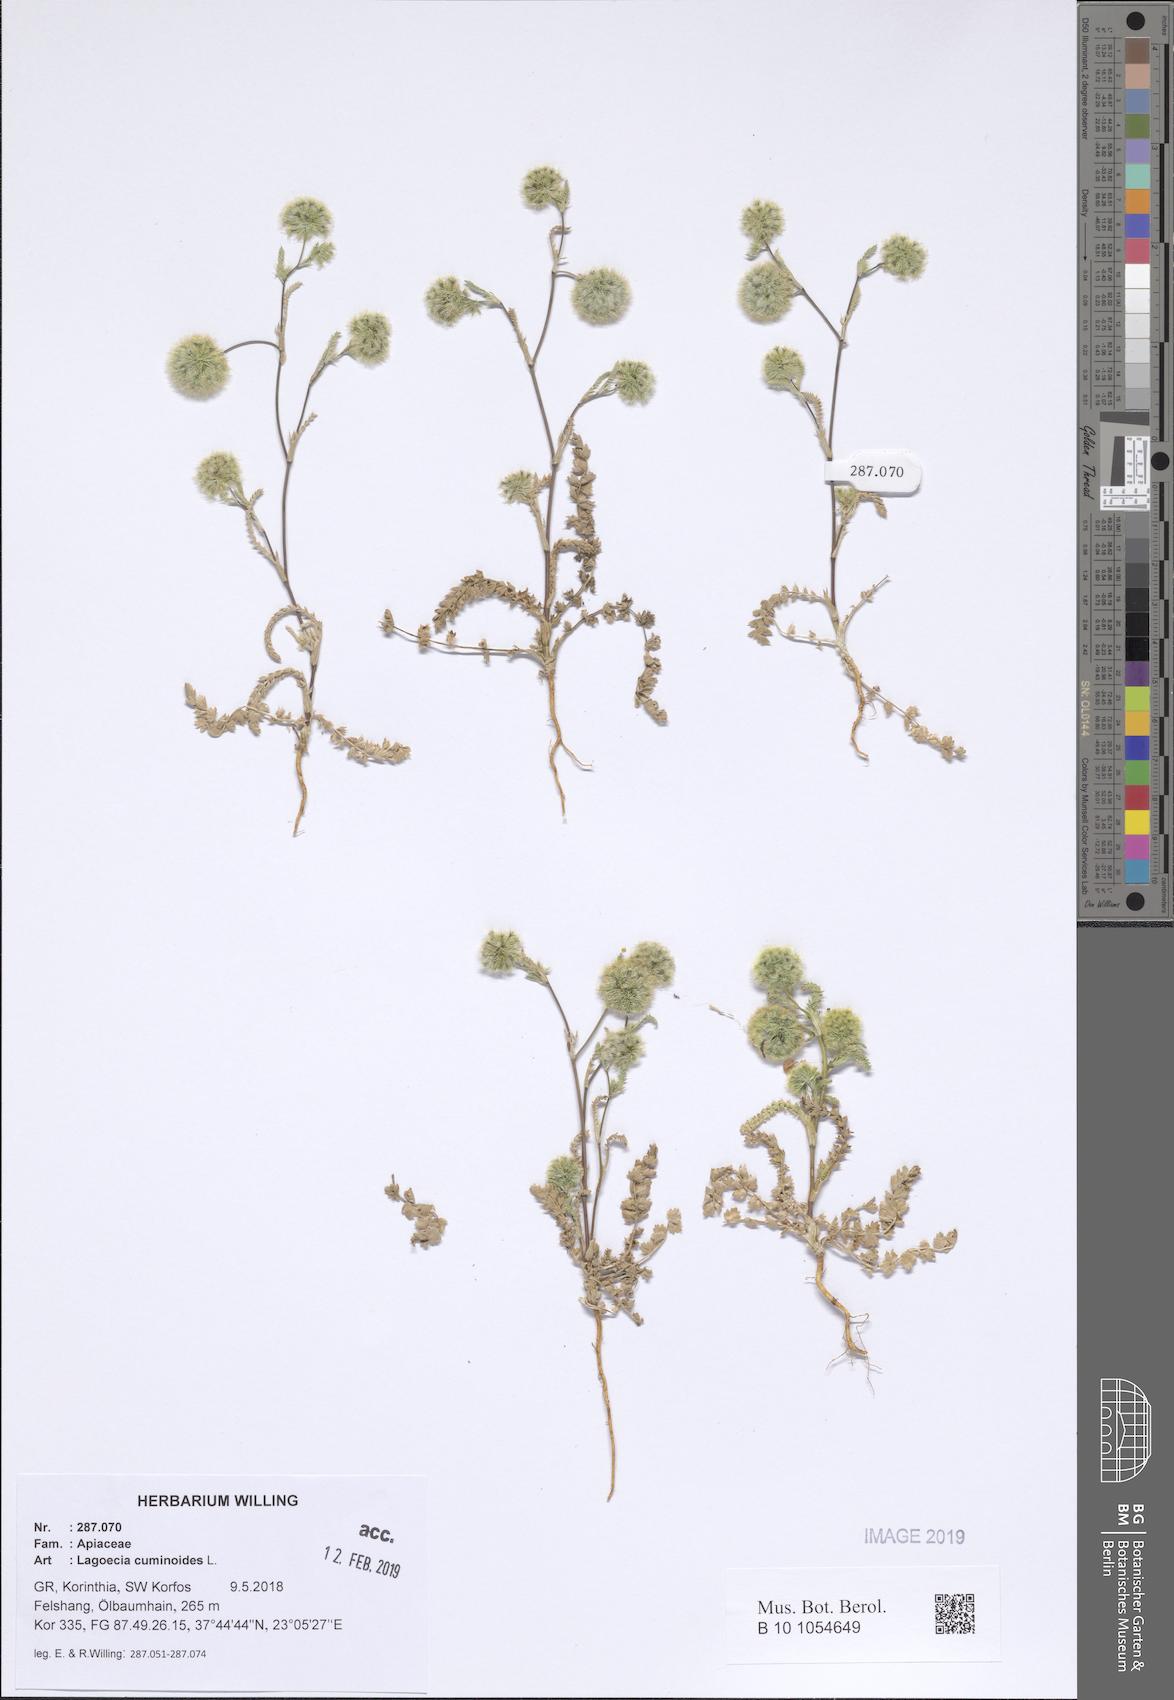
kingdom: Plantae
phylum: Tracheophyta
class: Magnoliopsida
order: Apiales
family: Apiaceae
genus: Lagoecia
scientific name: Lagoecia cuminoides
